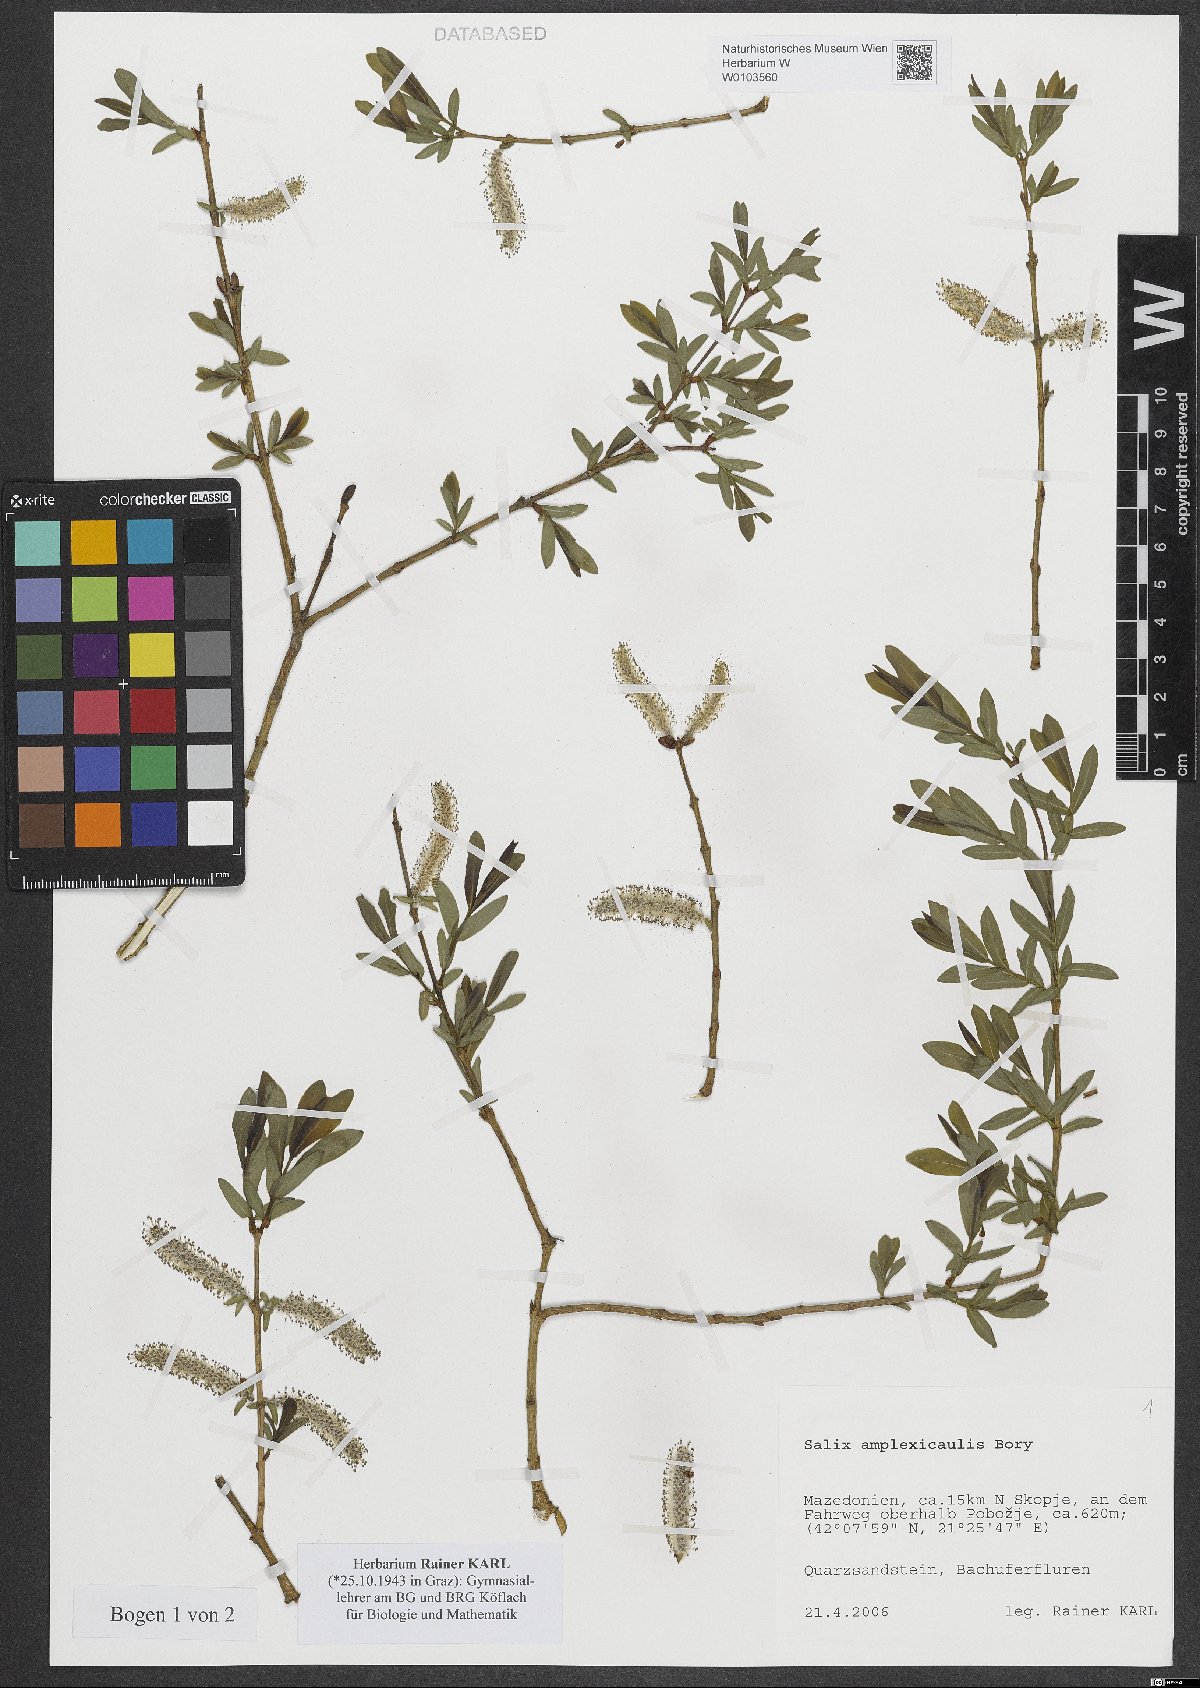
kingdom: Plantae
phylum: Tracheophyta
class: Magnoliopsida
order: Malpighiales
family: Salicaceae
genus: Salix
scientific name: Salix amplexicaulis
